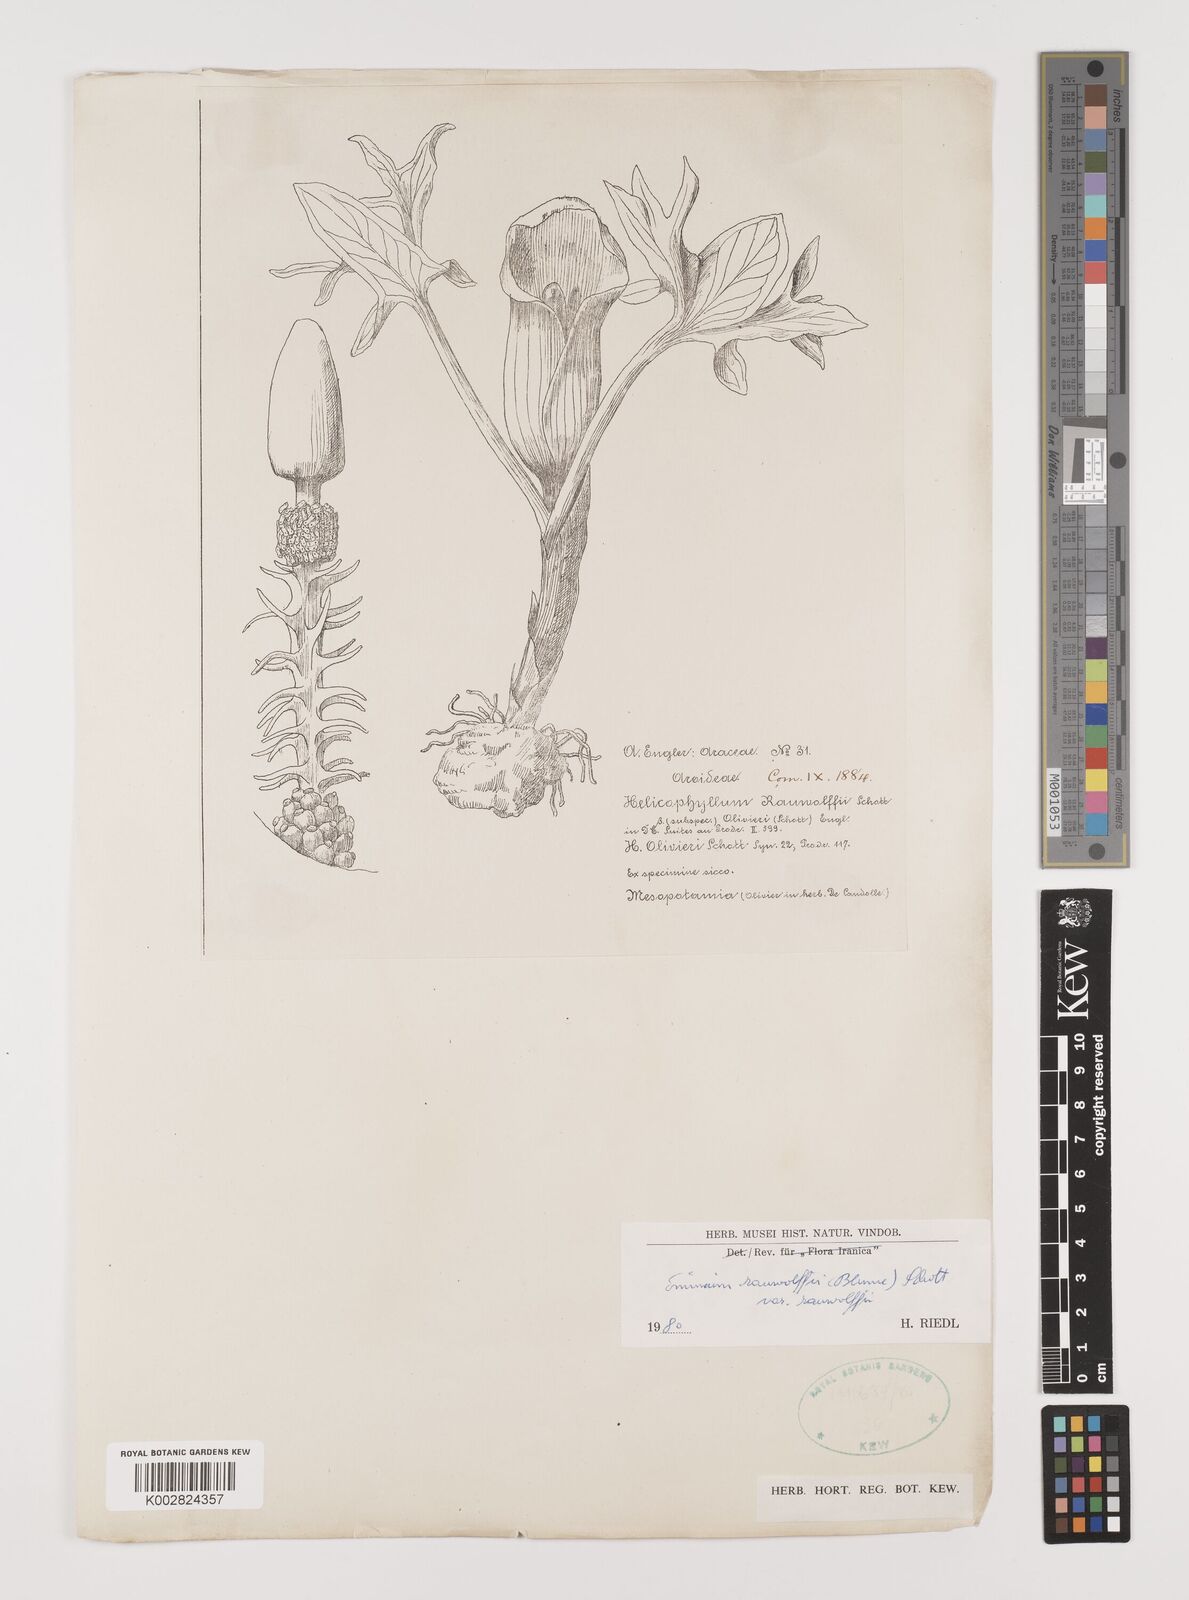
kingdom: Plantae
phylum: Tracheophyta
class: Liliopsida
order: Alismatales
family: Araceae
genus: Eminium
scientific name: Eminium rauwolffii
